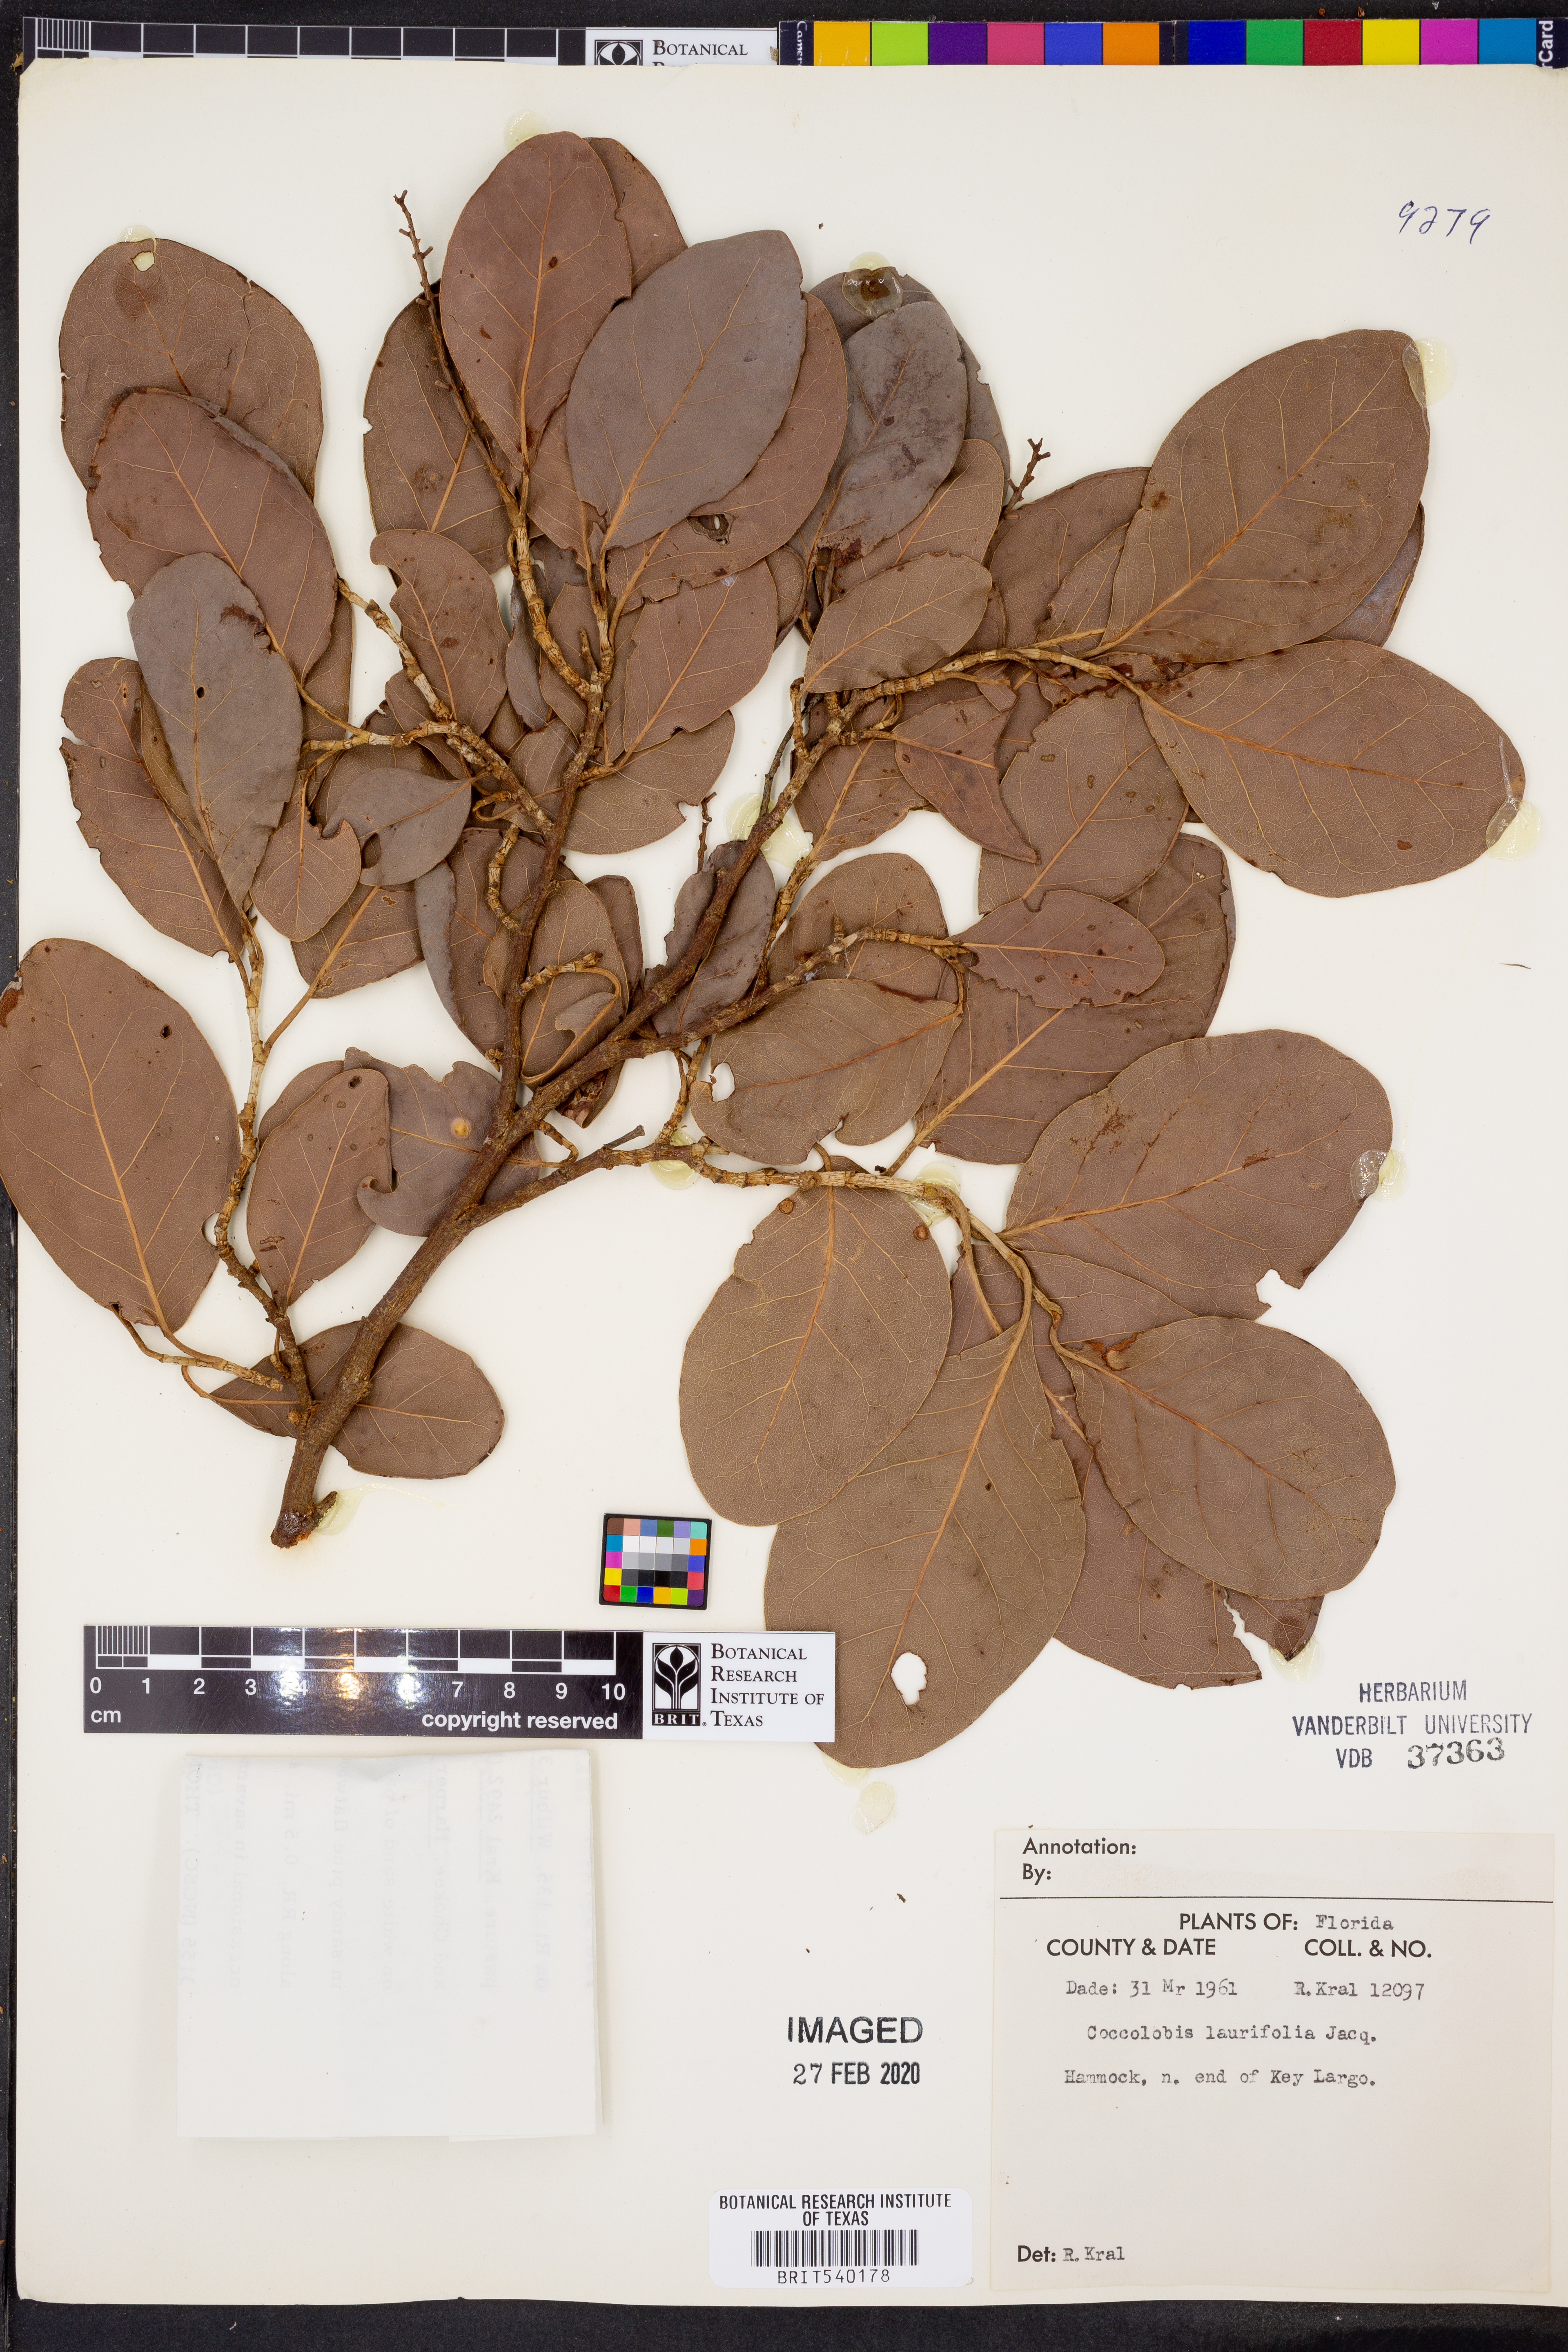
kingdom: Plantae
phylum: Tracheophyta
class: Magnoliopsida
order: Caryophyllales
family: Polygonaceae
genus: Coccoloba
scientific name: Coccoloba diversifolia
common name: Pigeon-plum
